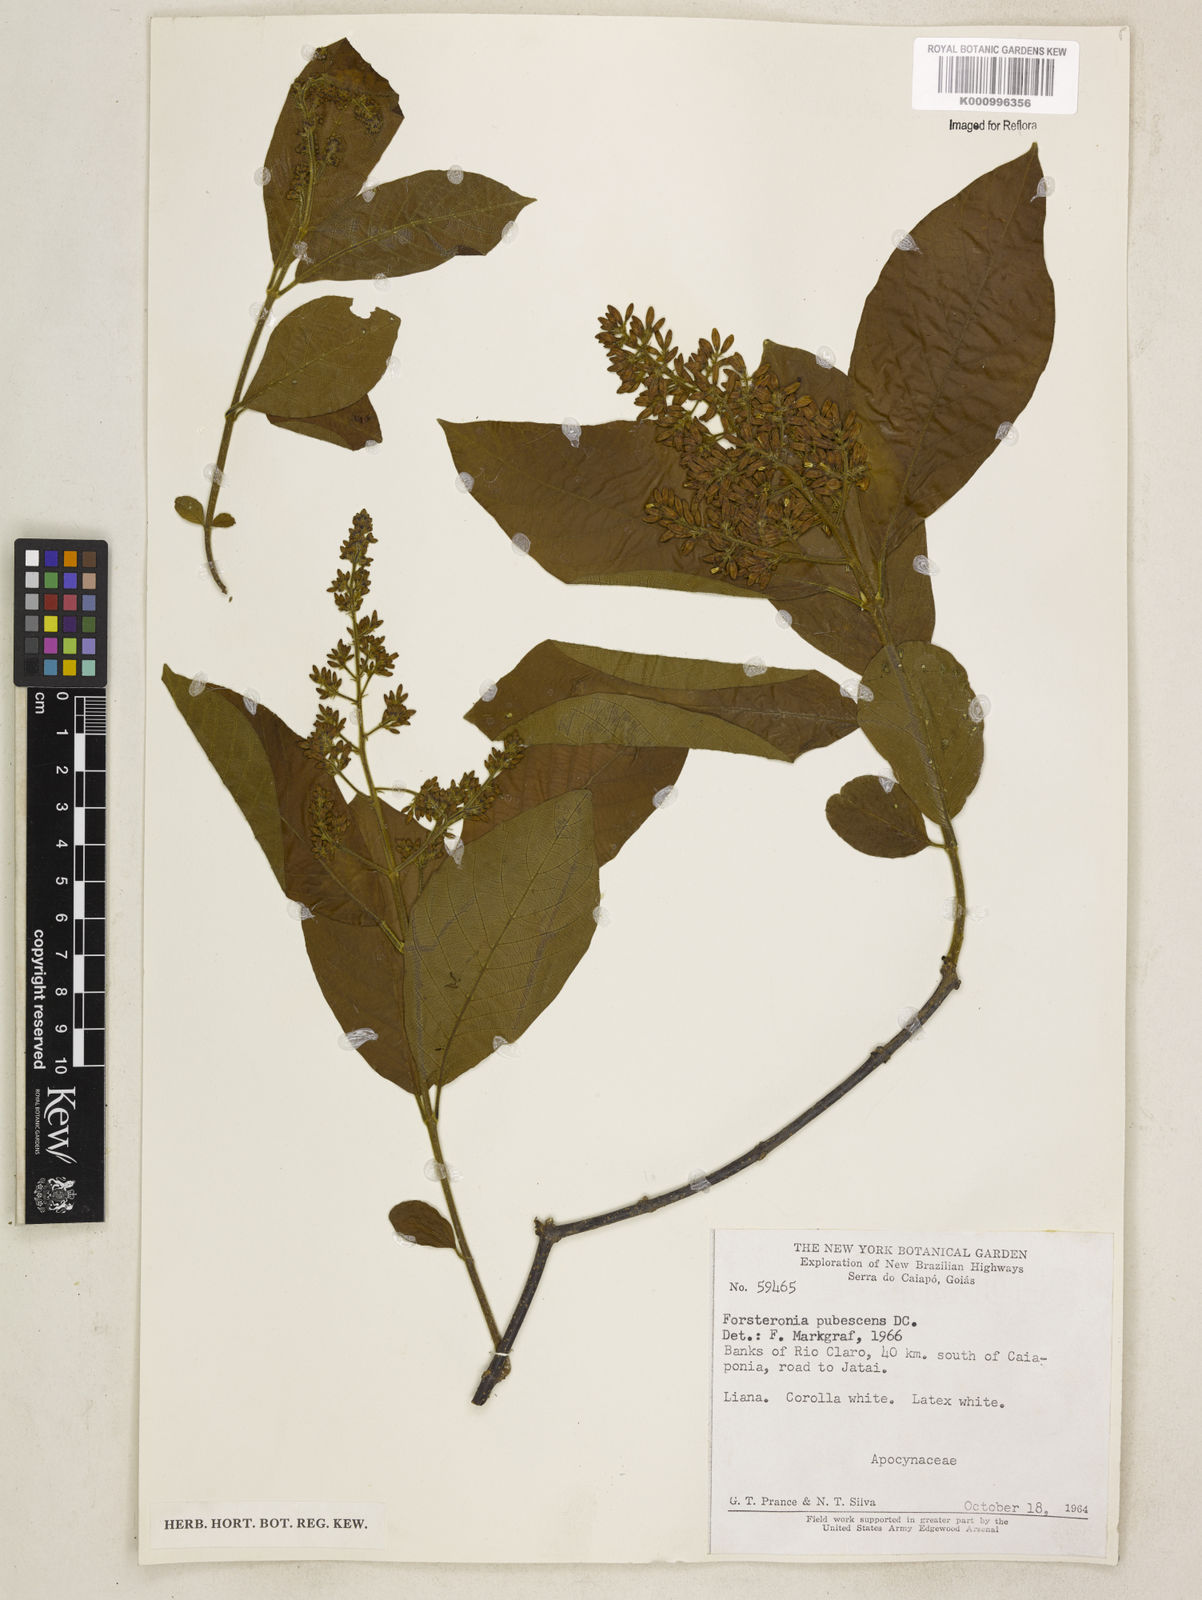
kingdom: Plantae
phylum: Tracheophyta
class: Magnoliopsida
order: Gentianales
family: Apocynaceae
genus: Forsteronia
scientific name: Forsteronia
